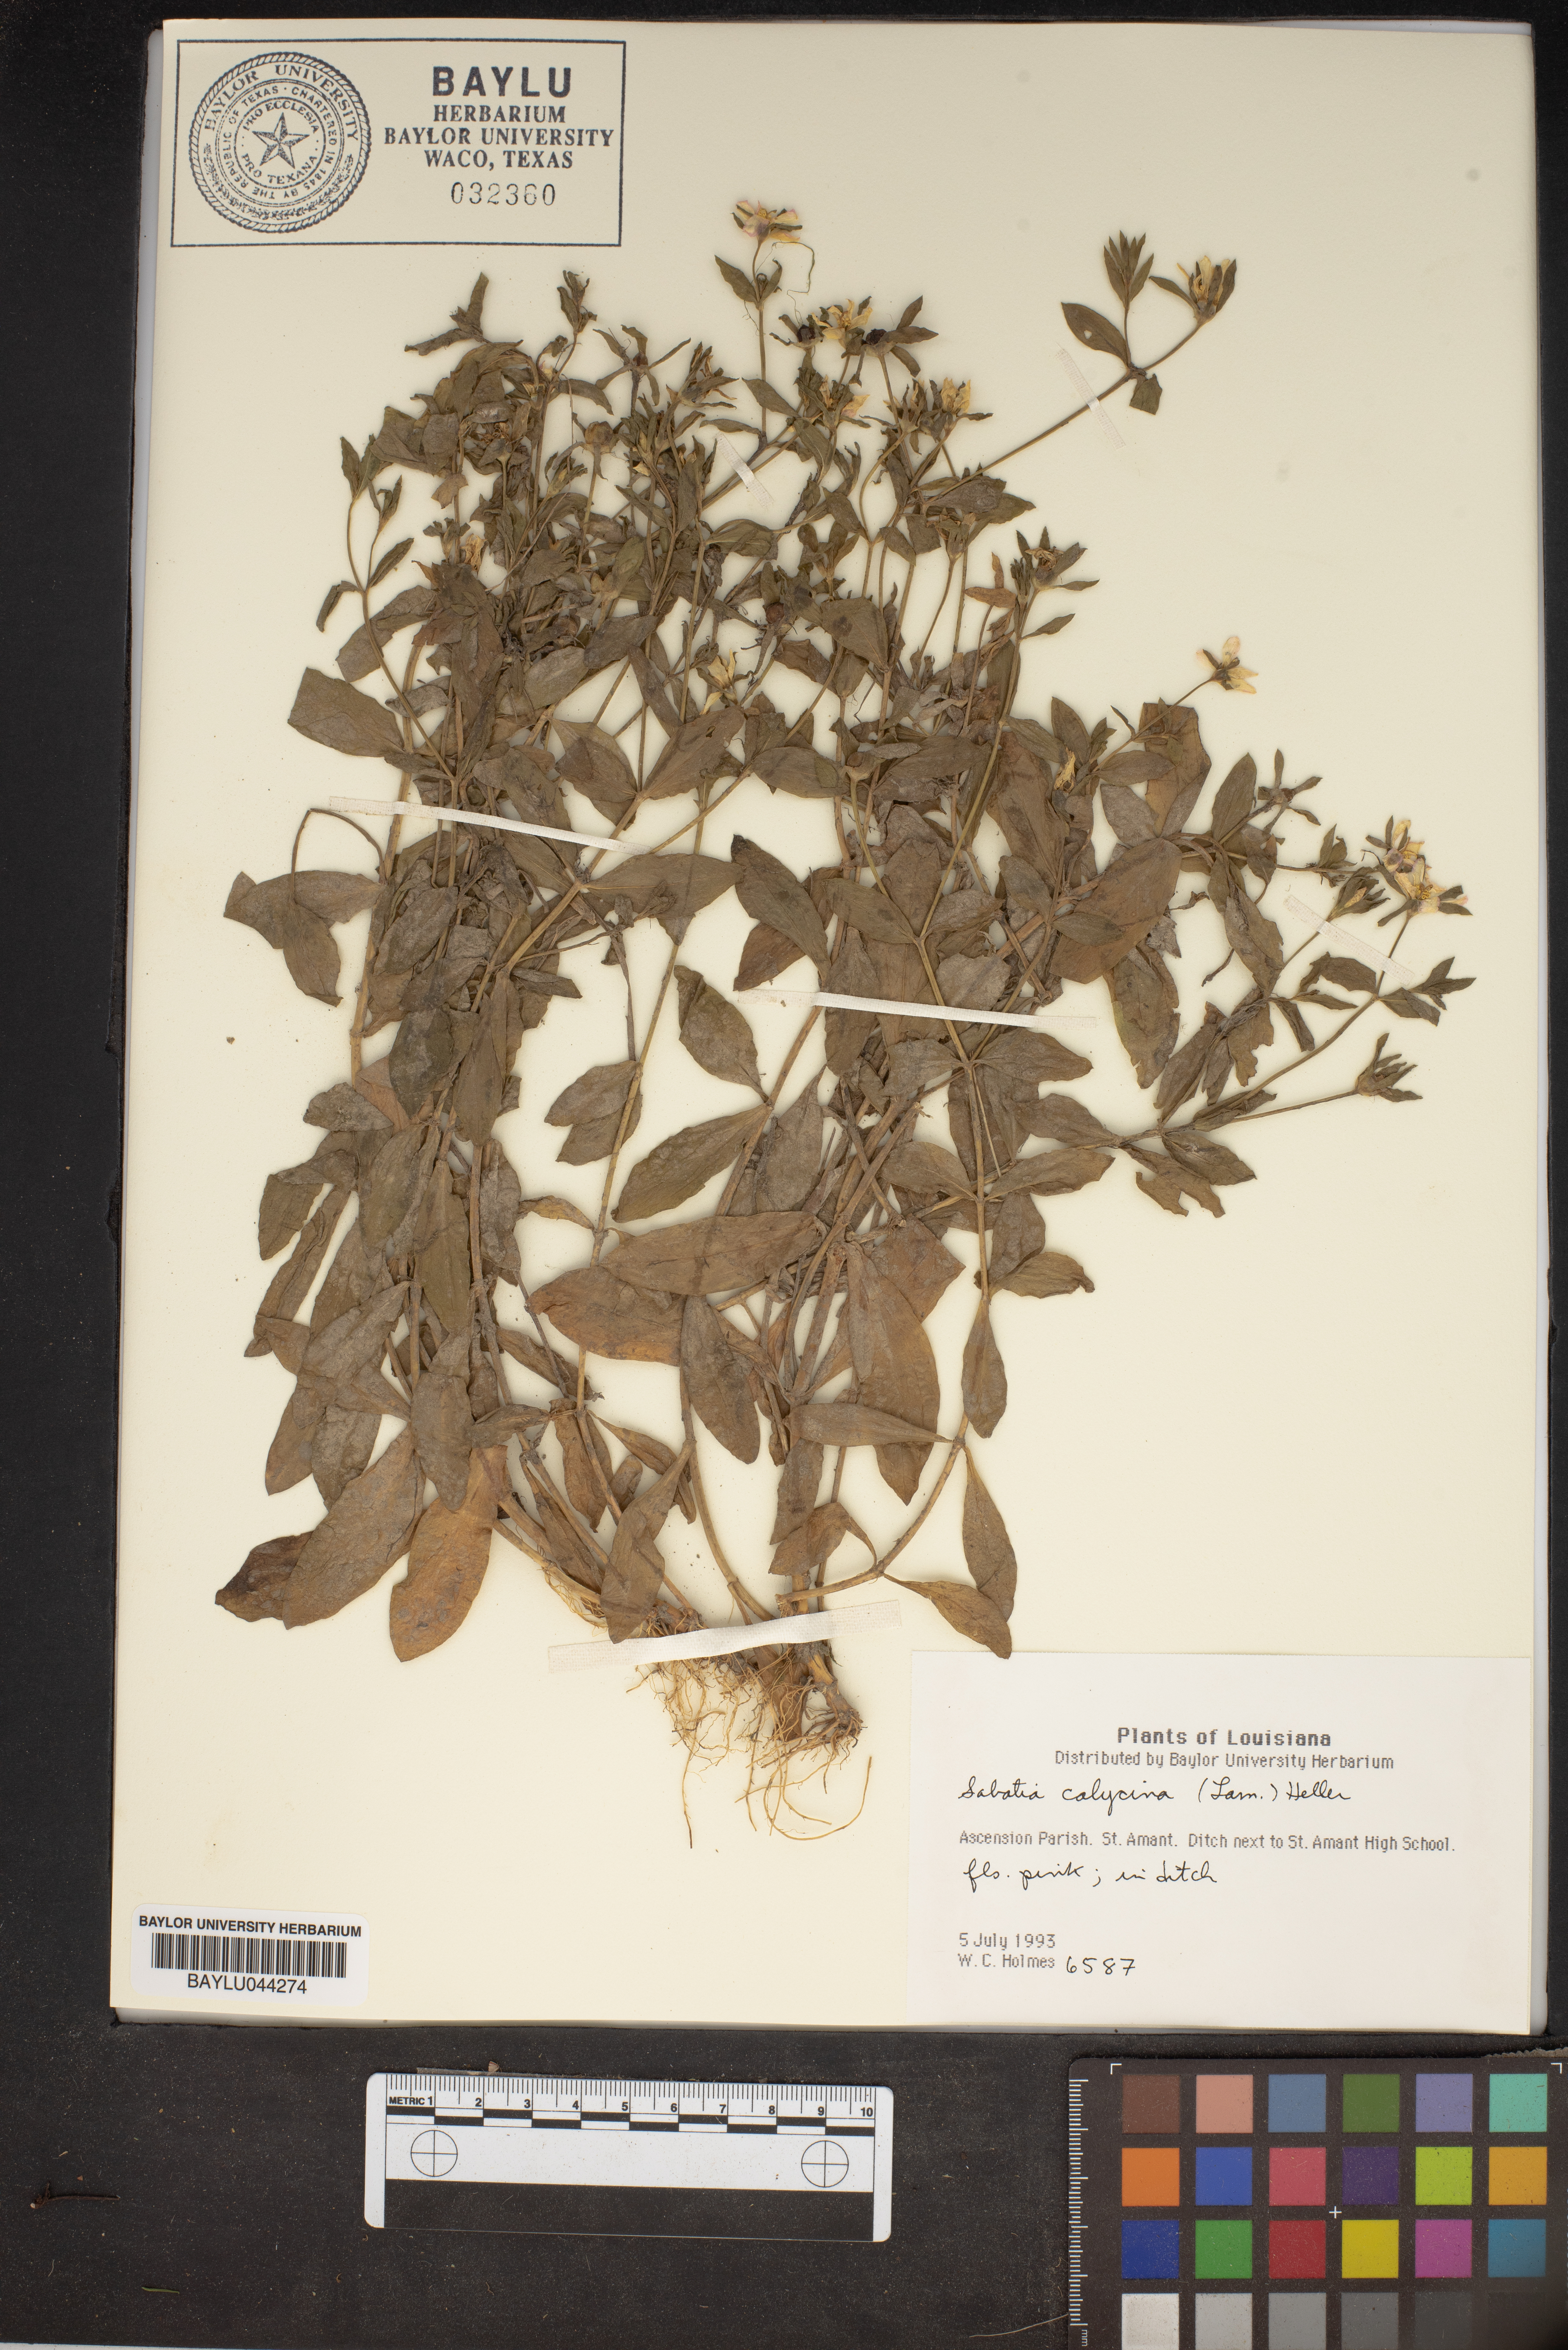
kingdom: Plantae
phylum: Tracheophyta
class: Magnoliopsida
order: Gentianales
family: Gentianaceae
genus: Sabatia
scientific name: Sabatia calycina
